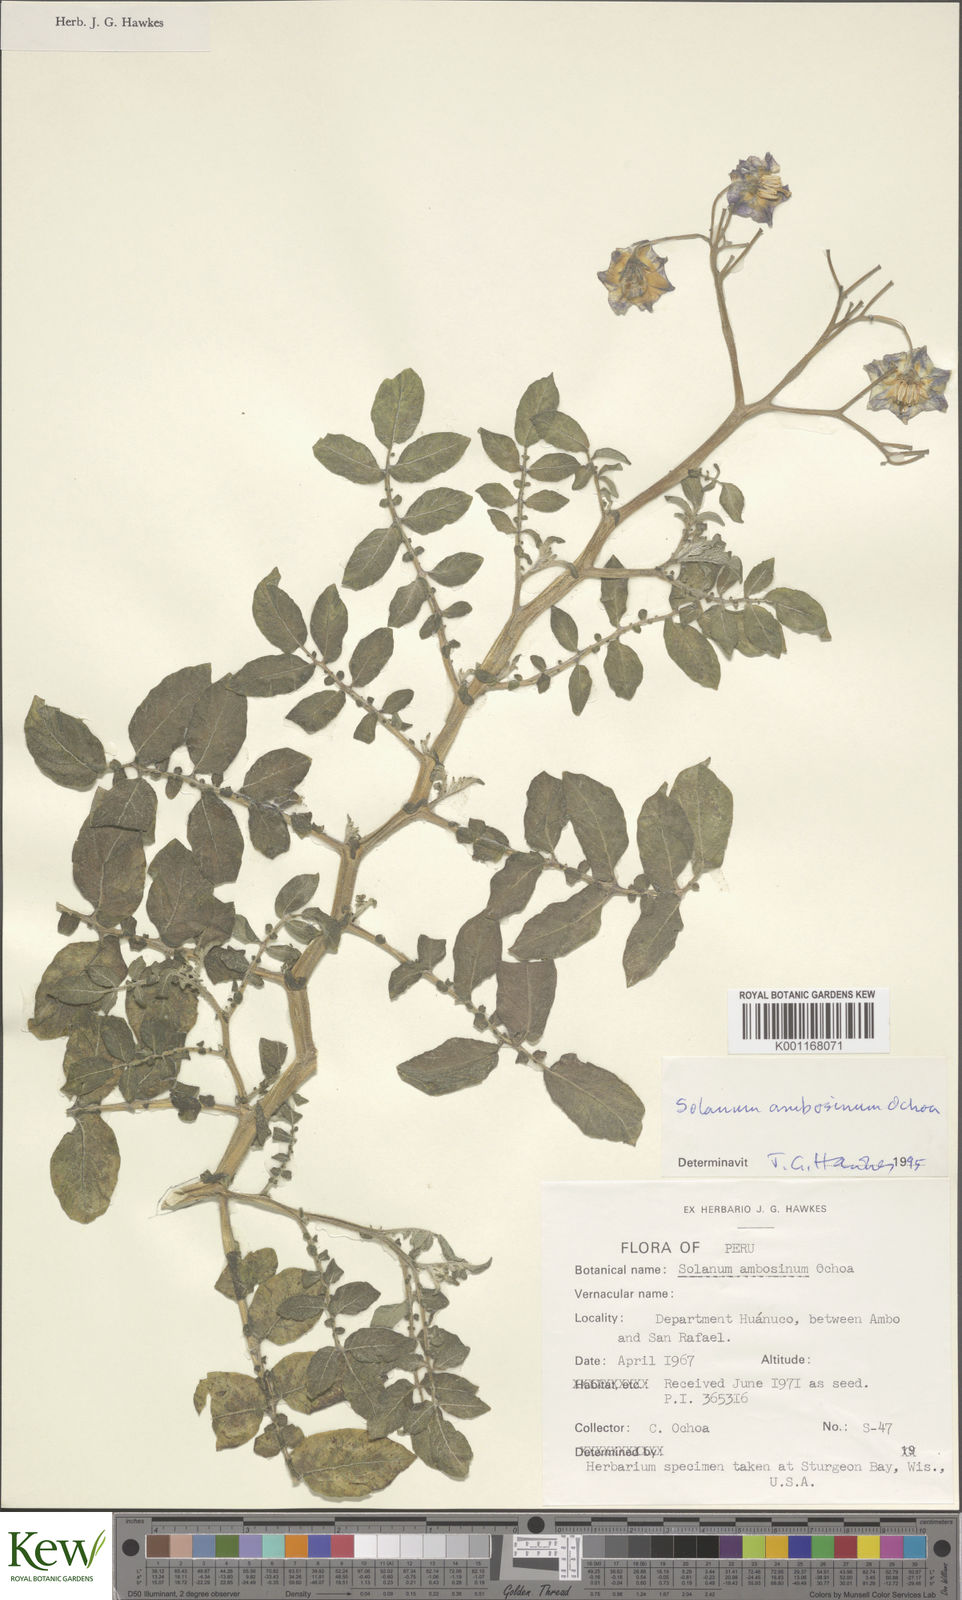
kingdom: Plantae
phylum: Tracheophyta
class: Magnoliopsida
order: Solanales
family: Solanaceae
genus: Solanum
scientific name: Solanum candolleanum
